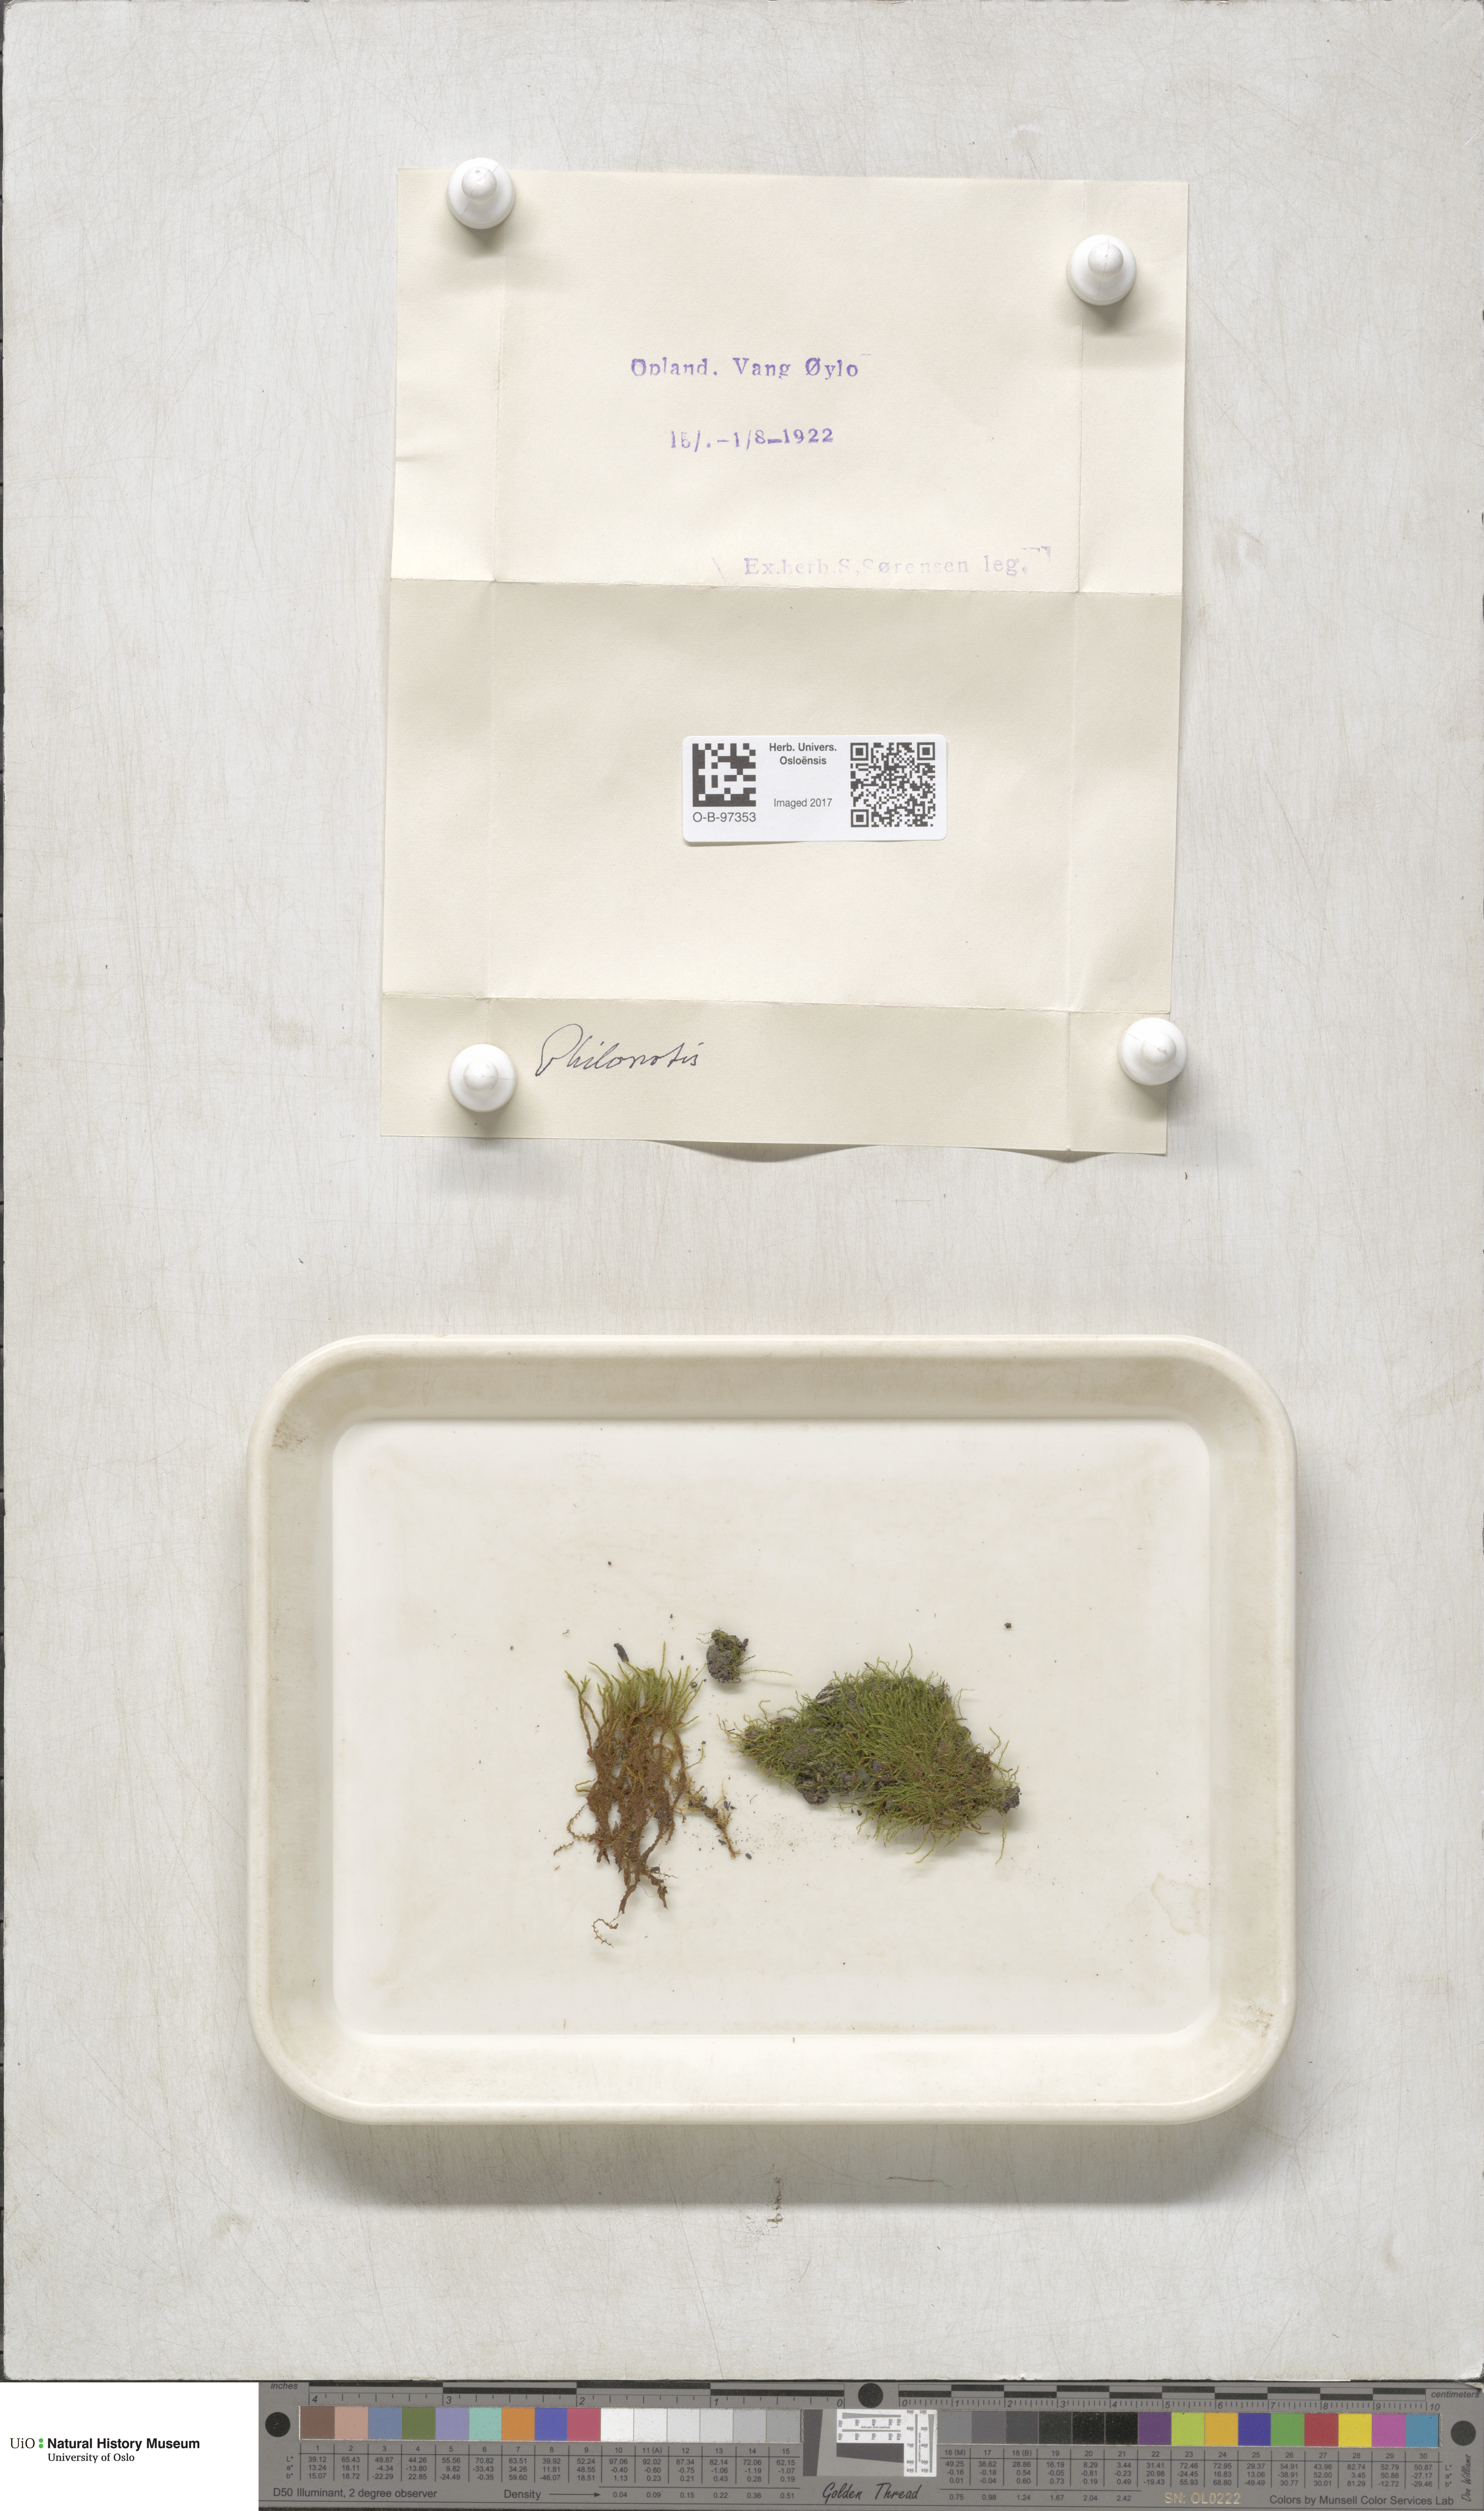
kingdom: Plantae
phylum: Bryophyta
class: Bryopsida
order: Bartramiales
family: Bartramiaceae
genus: Philonotis
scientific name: Philonotis
